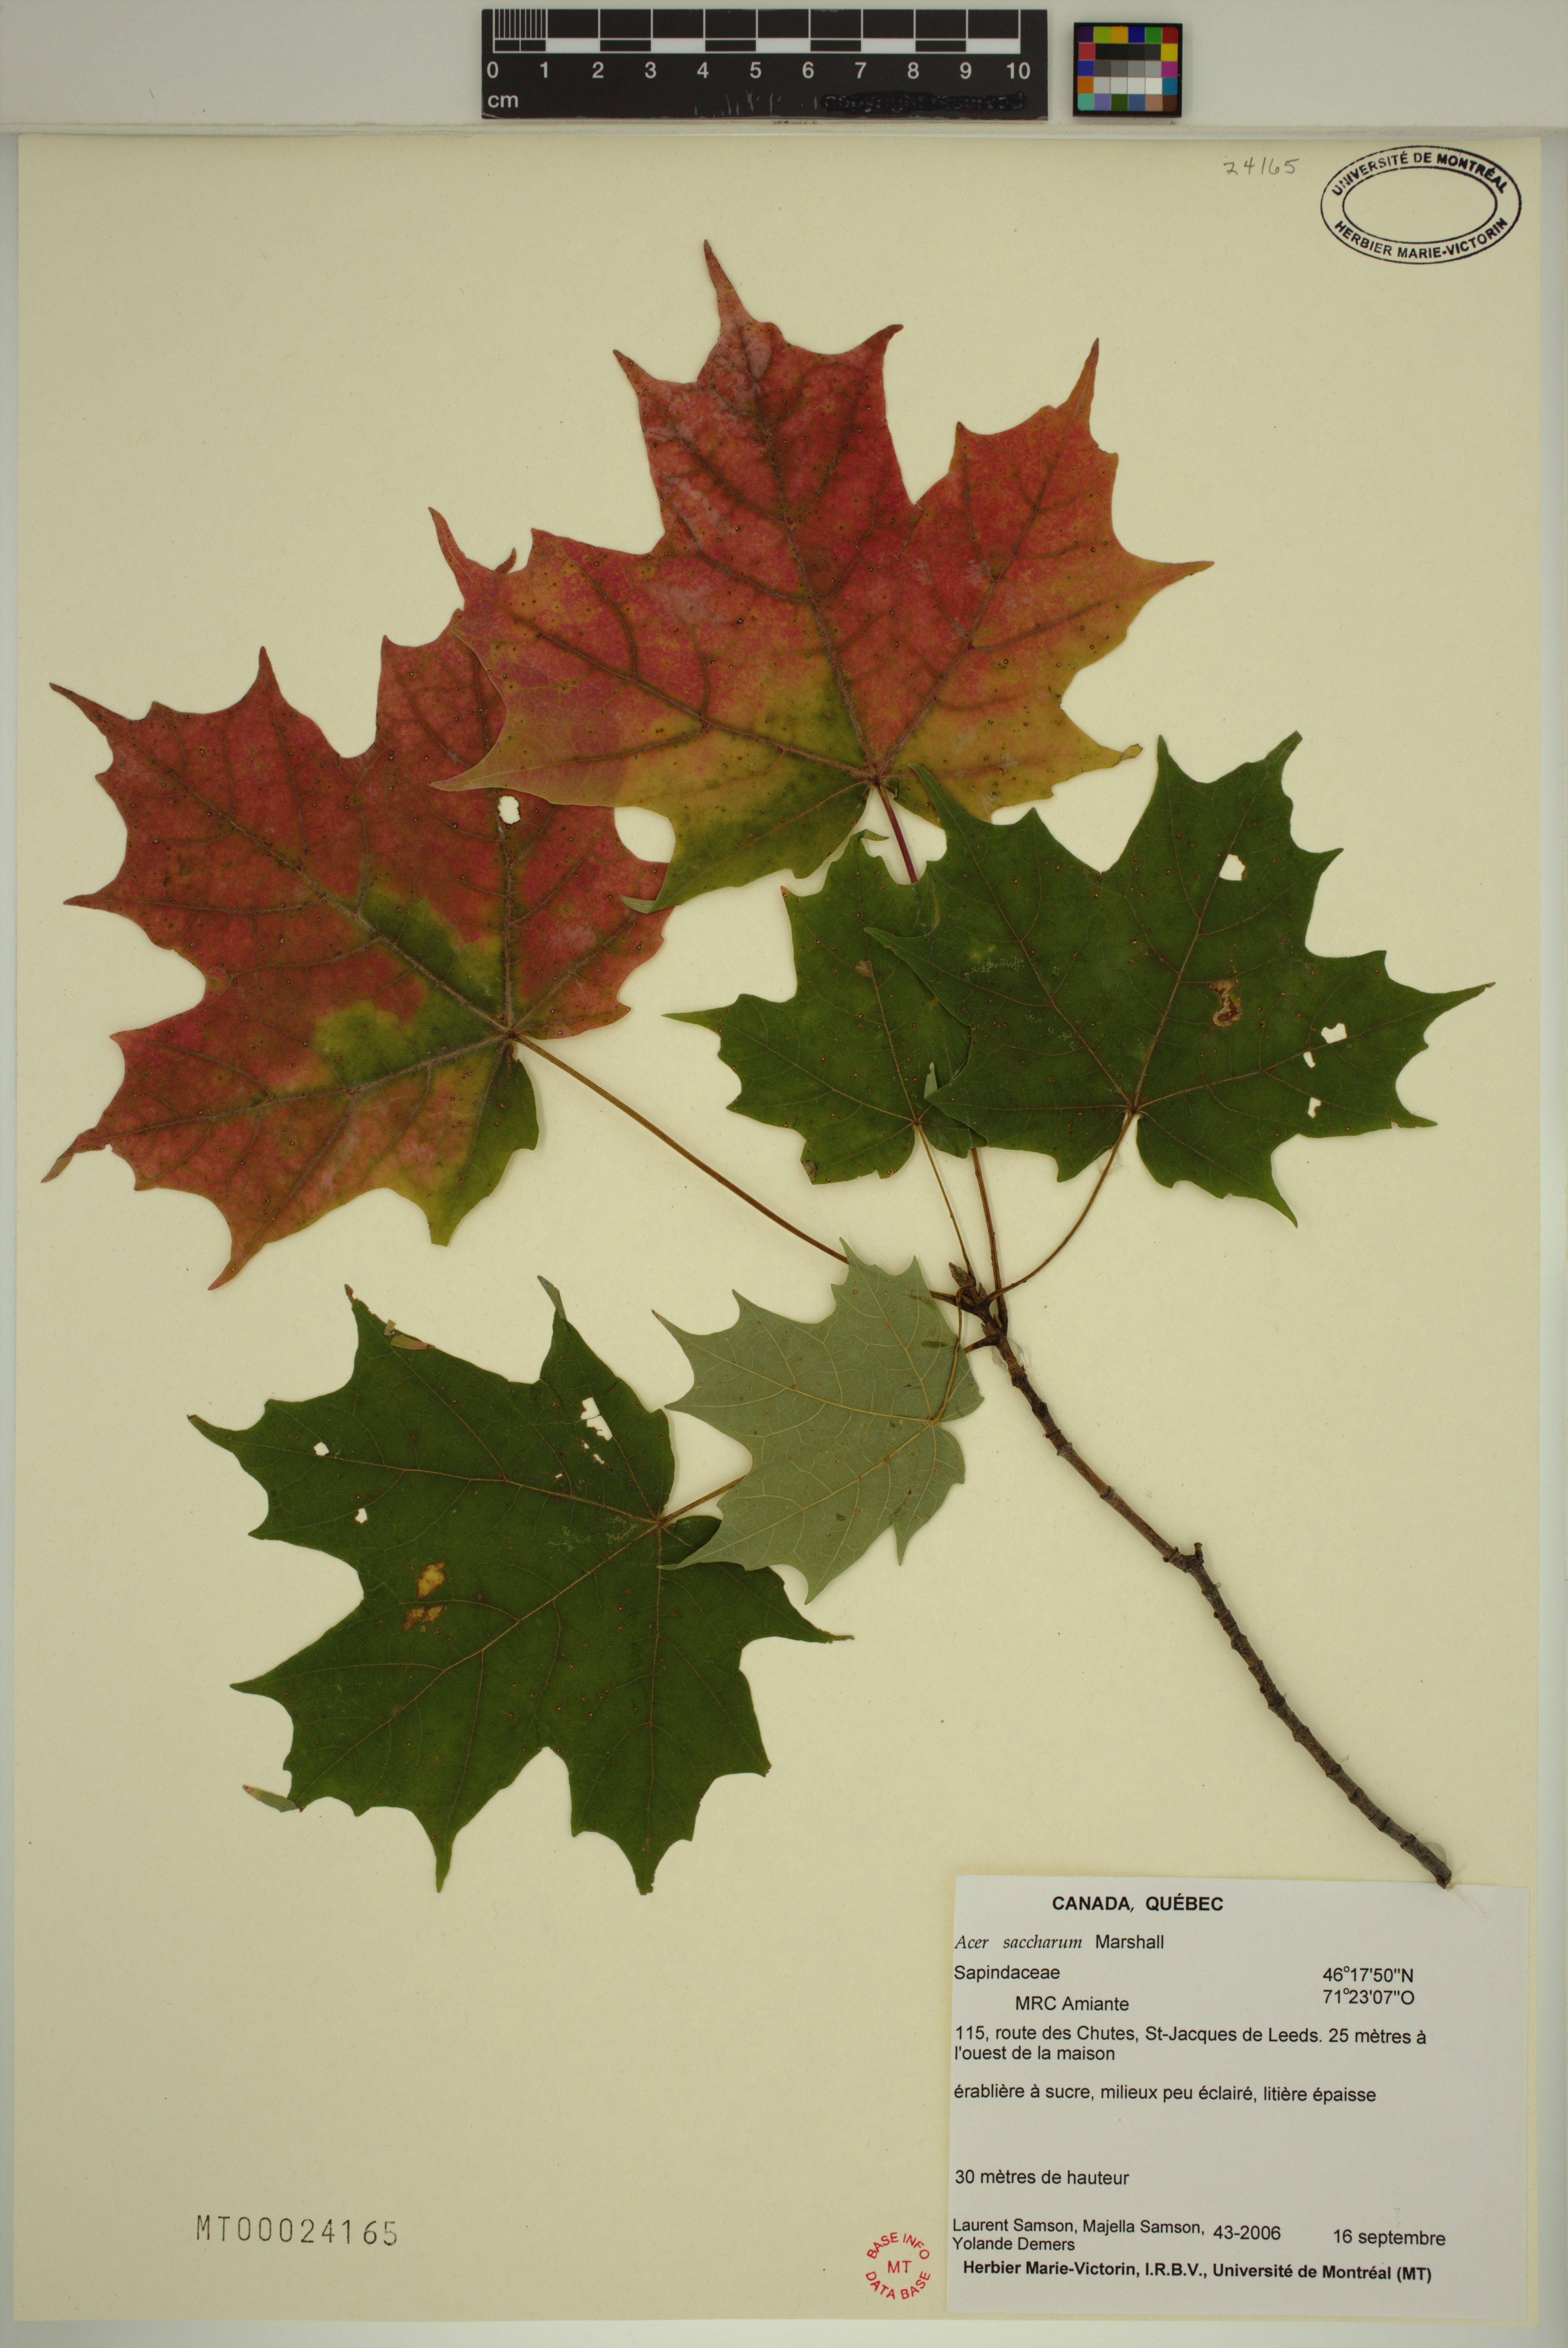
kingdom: Plantae
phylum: Tracheophyta
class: Magnoliopsida
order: Sapindales
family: Sapindaceae
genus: Acer
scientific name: Acer saccharum
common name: Sugar maple
